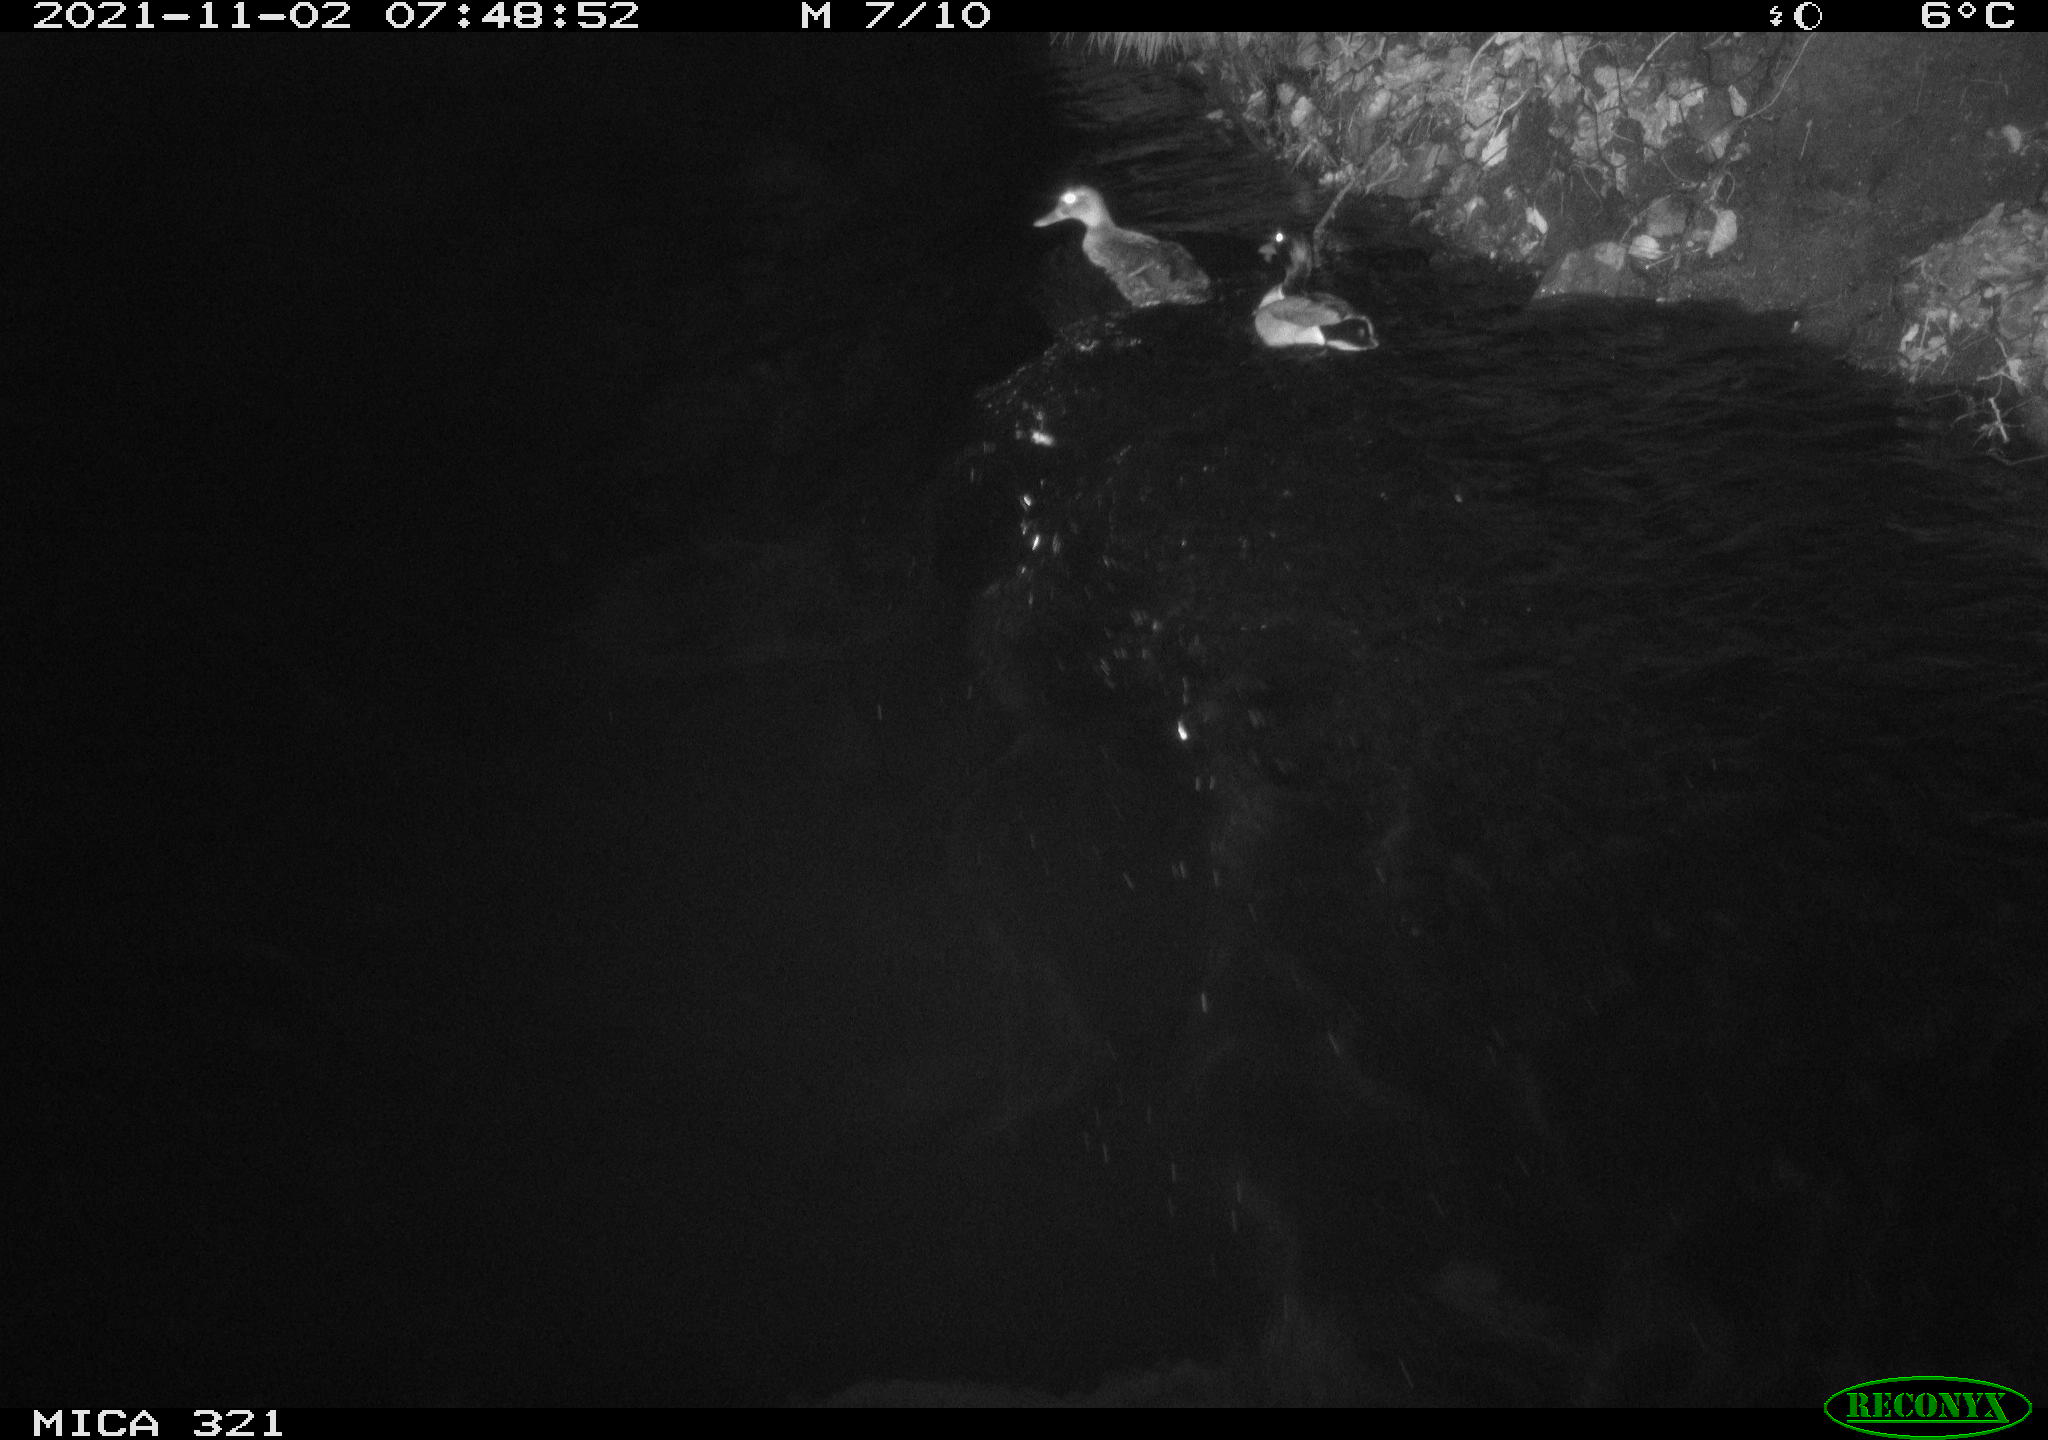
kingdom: Animalia
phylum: Chordata
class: Aves
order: Anseriformes
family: Anatidae
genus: Anas
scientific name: Anas platyrhynchos
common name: Mallard
